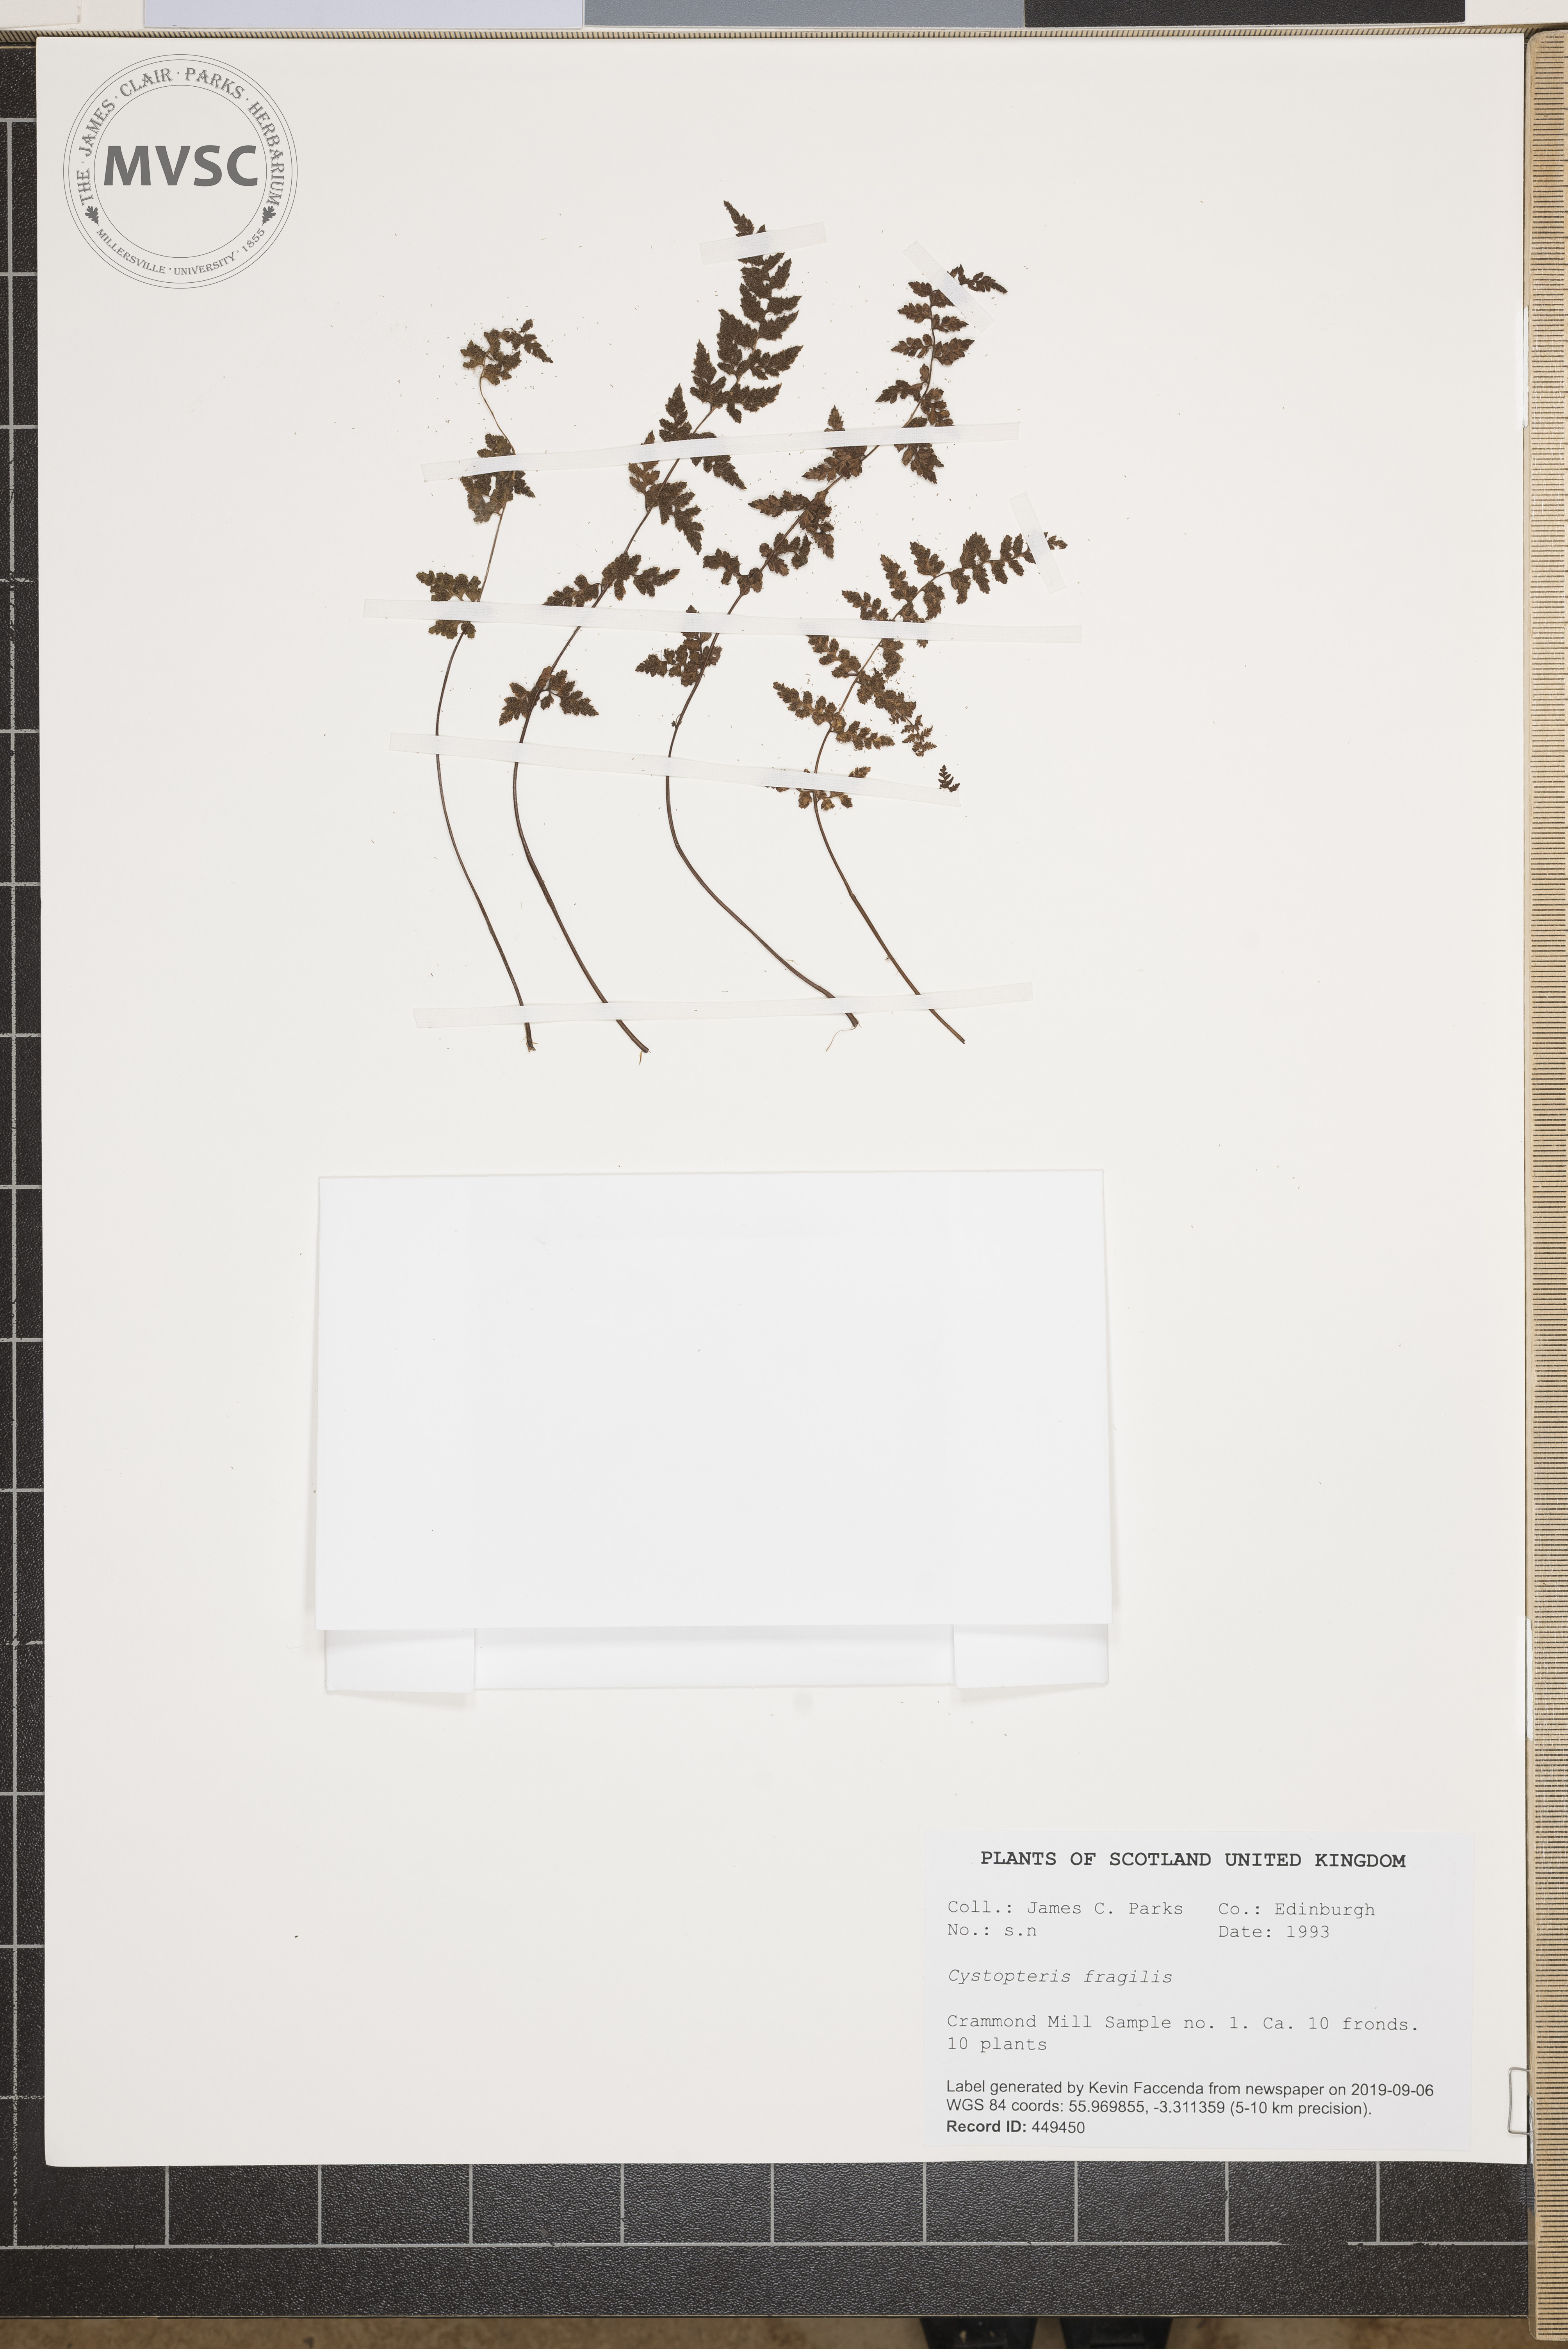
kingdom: Plantae
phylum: Tracheophyta
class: Polypodiopsida
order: Polypodiales
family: Cystopteridaceae
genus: Cystopteris
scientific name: Cystopteris fragilis
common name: Brittle bladder fern
